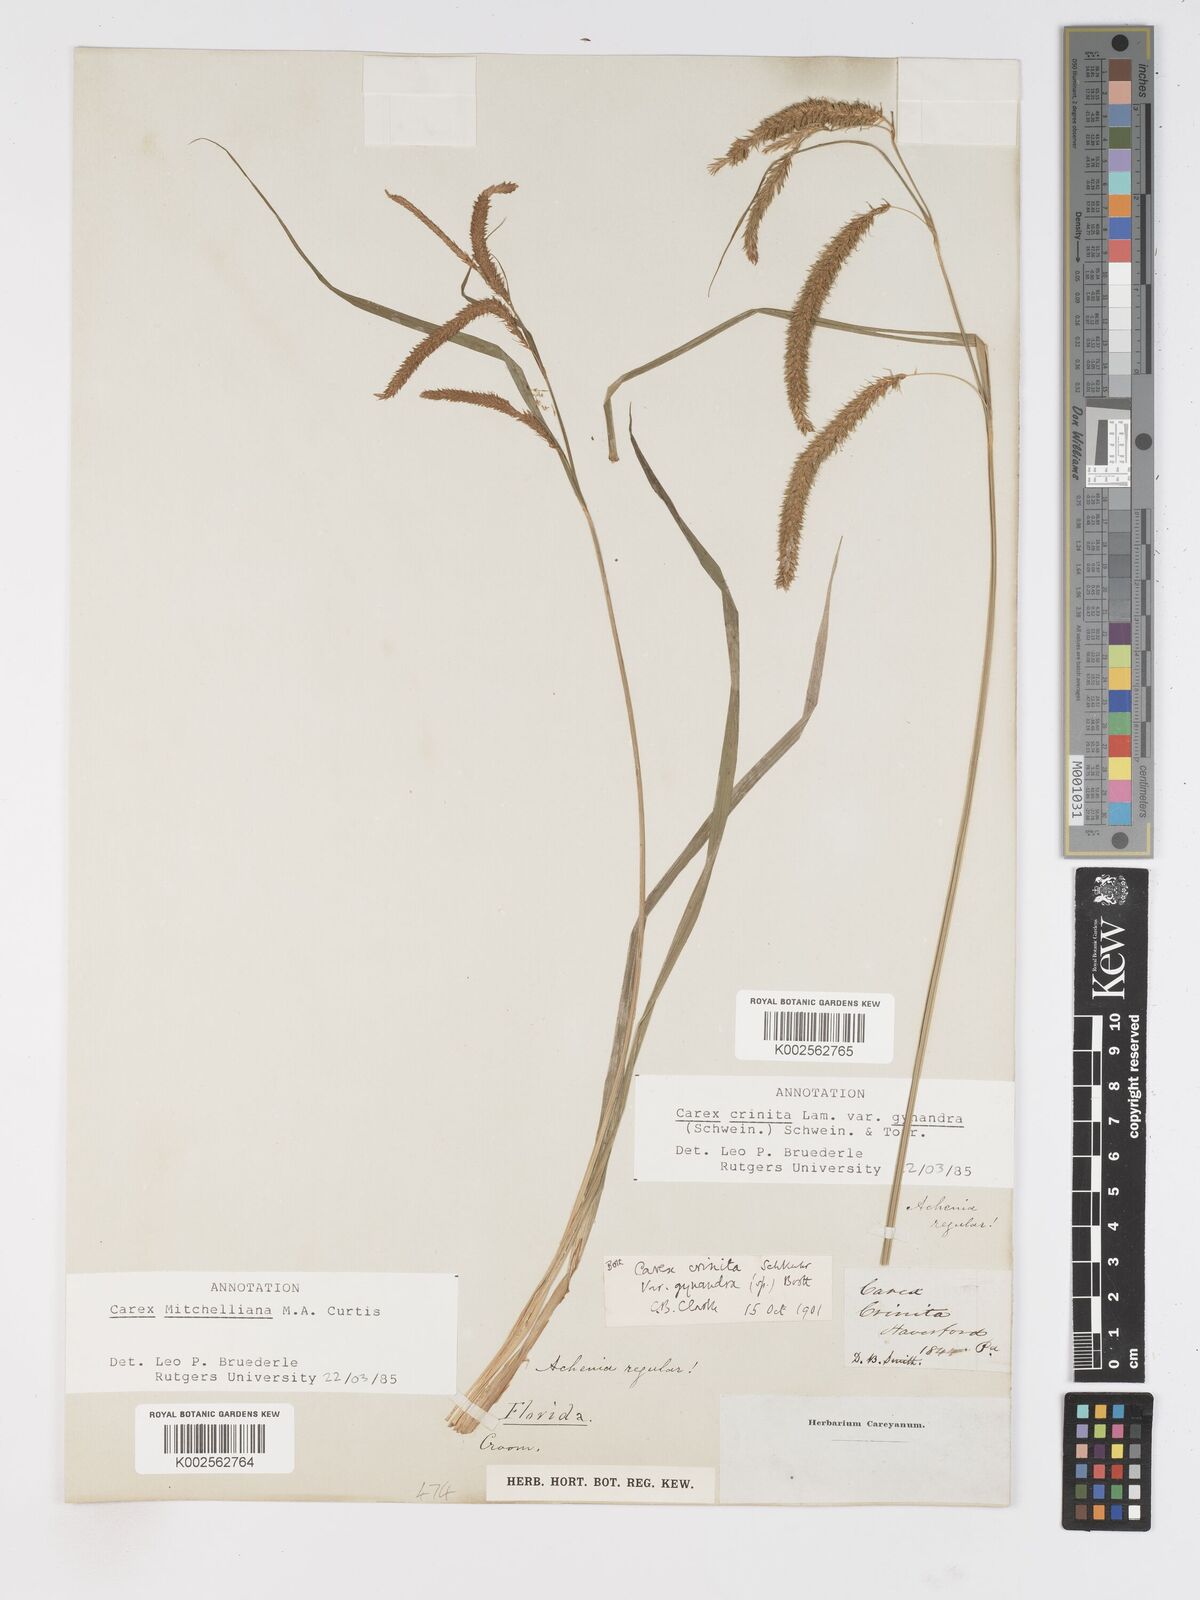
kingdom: Plantae
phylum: Tracheophyta
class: Liliopsida
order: Poales
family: Cyperaceae
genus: Carex
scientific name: Carex mitchelliana
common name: Mitchell's sedge
